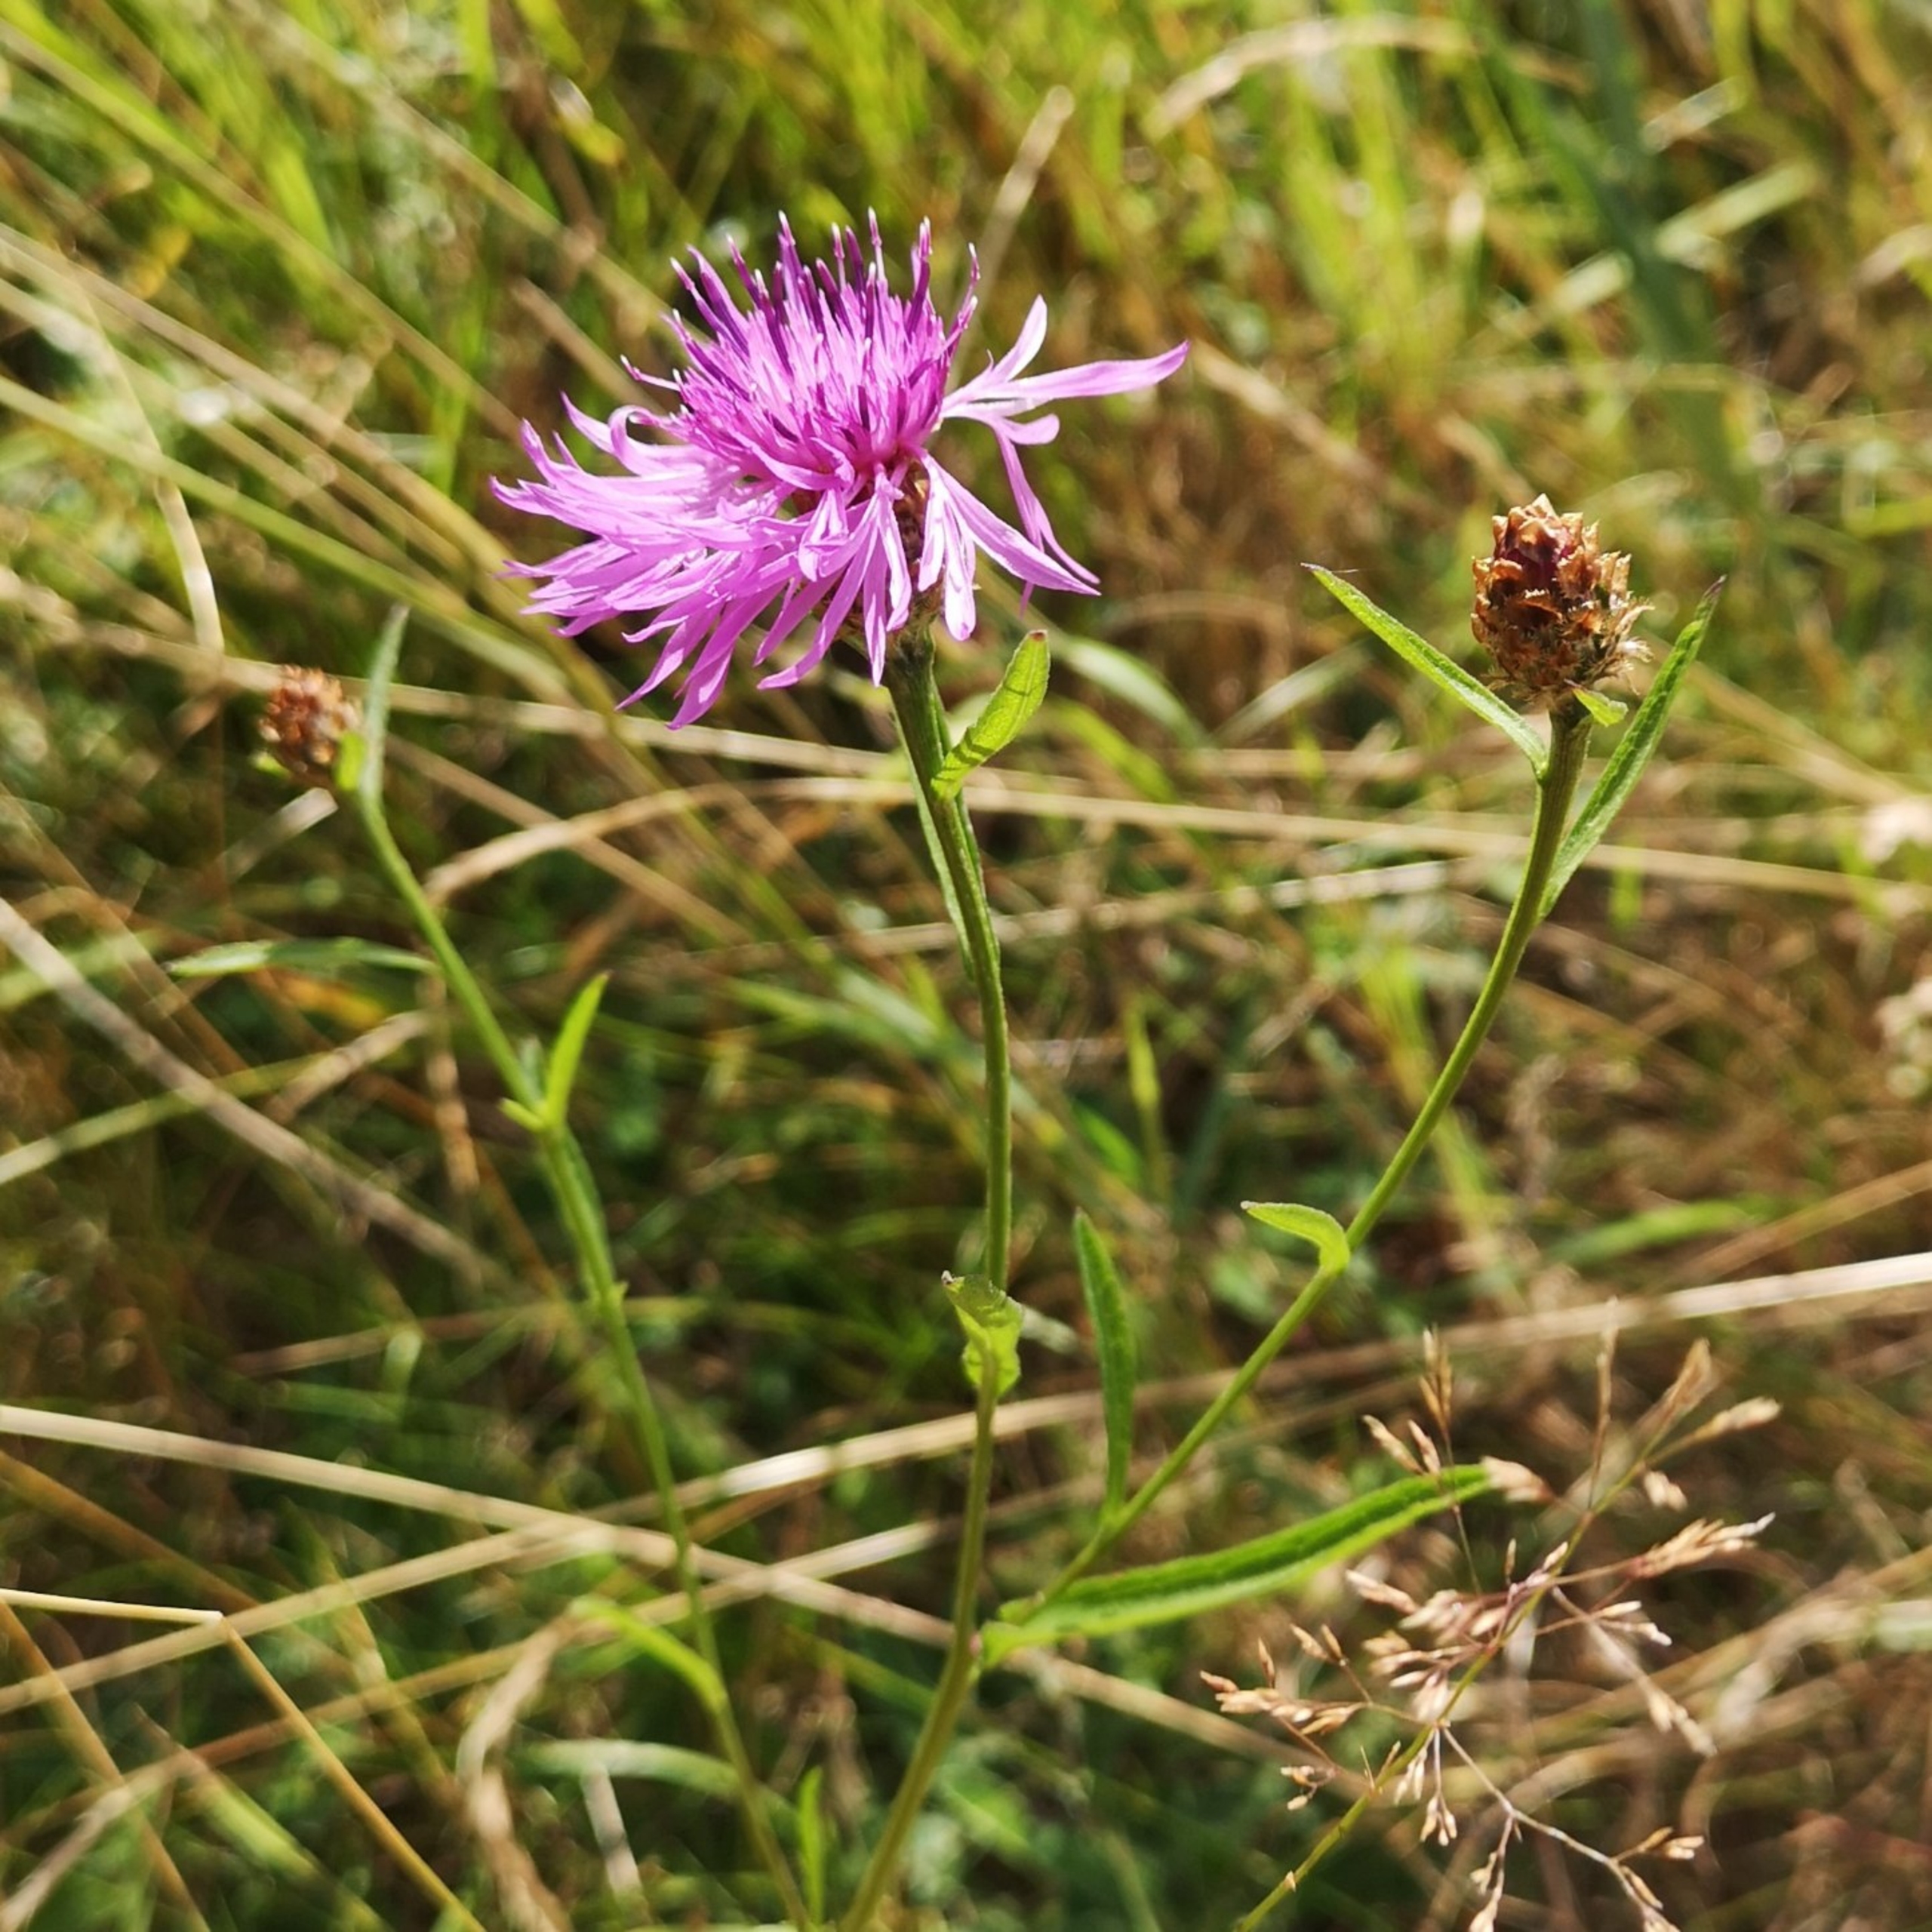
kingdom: Plantae
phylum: Tracheophyta
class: Magnoliopsida
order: Asterales
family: Asteraceae
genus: Centaurea
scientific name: Centaurea jacea
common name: Almindelig knopurt
